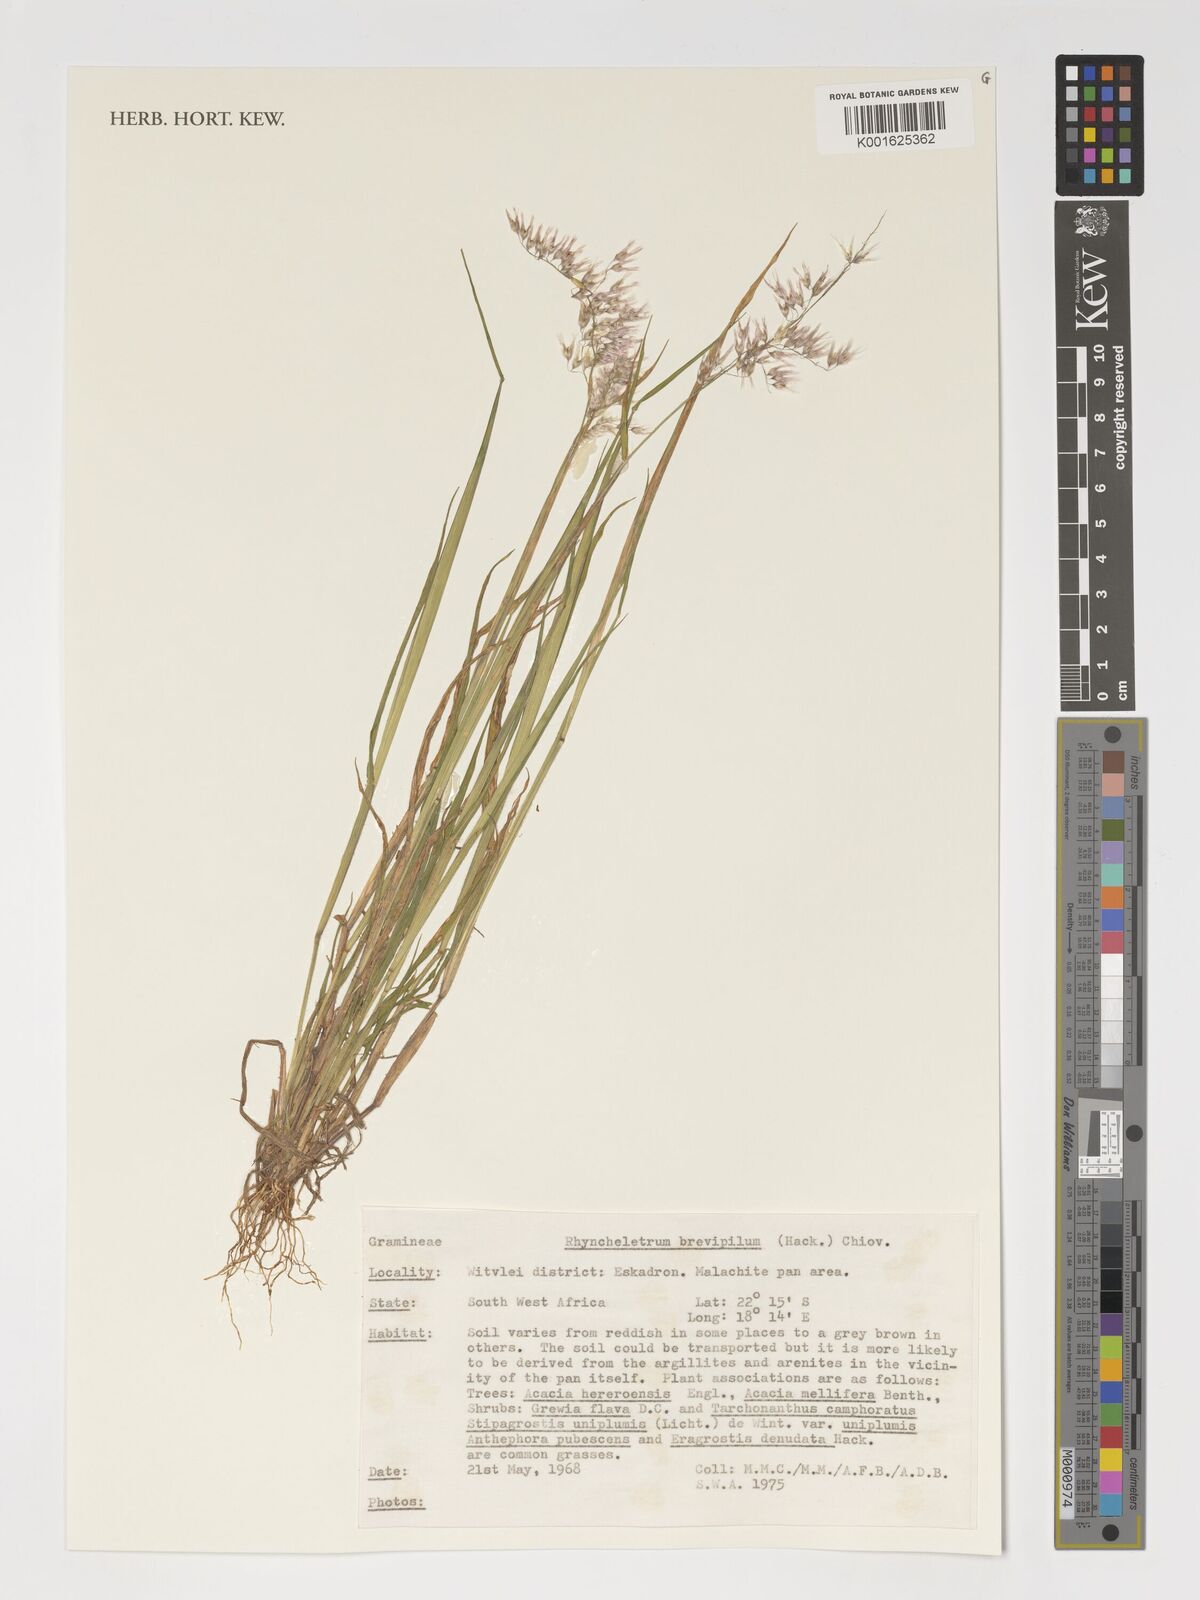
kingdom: Plantae
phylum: Tracheophyta
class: Liliopsida
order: Poales
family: Poaceae
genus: Melinis
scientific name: Melinis
